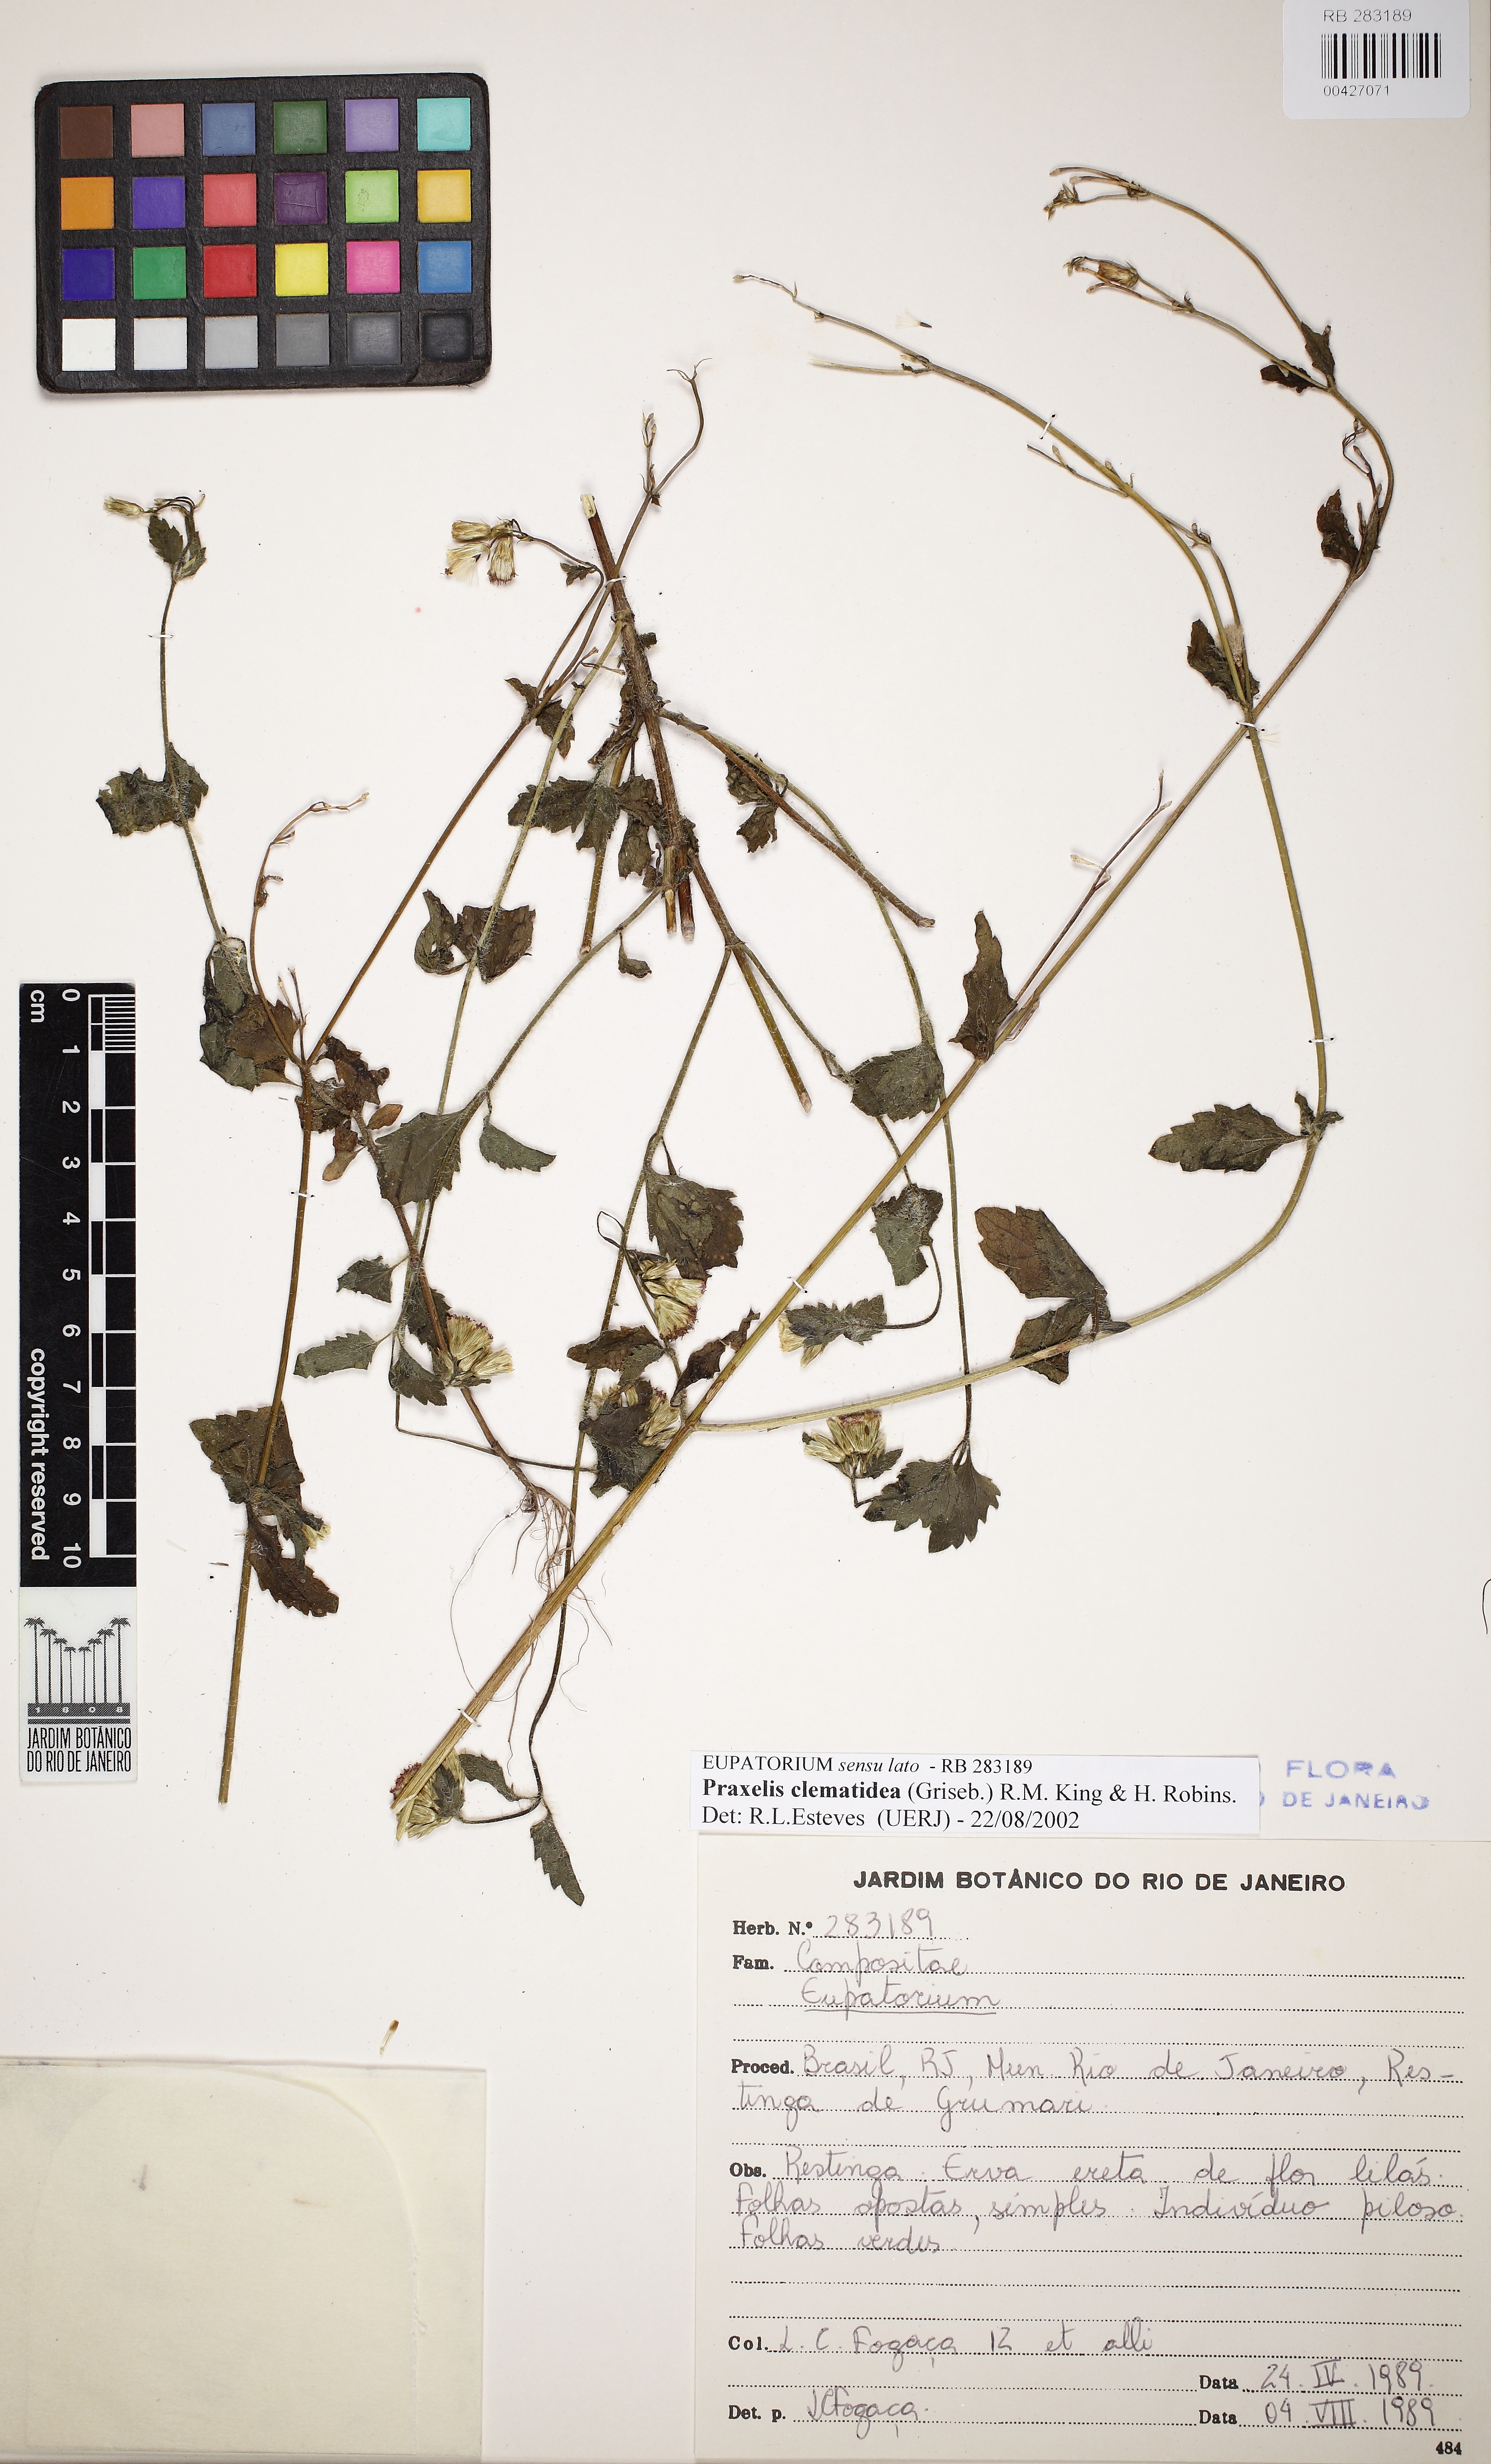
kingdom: Plantae
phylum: Tracheophyta
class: Magnoliopsida
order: Asterales
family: Asteraceae
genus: Pterocaulon
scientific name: Pterocaulon lorentzii
